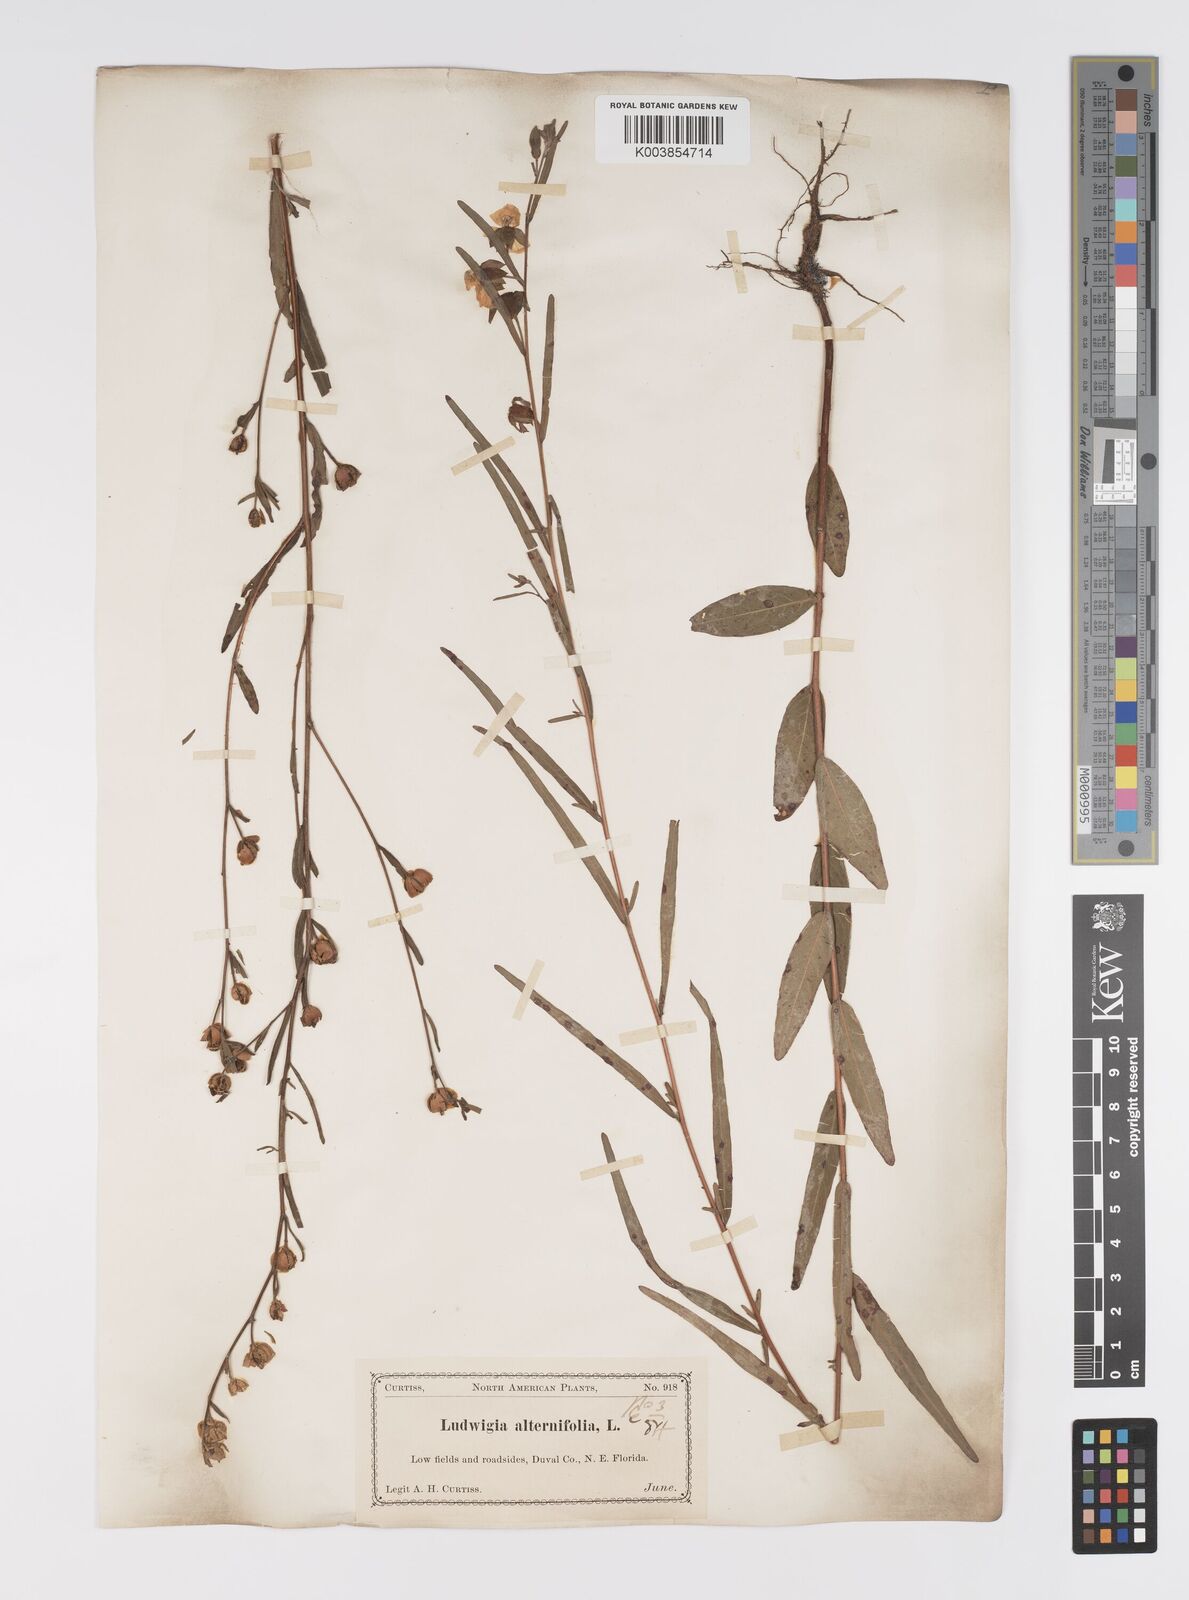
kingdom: Plantae
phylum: Tracheophyta
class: Magnoliopsida
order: Myrtales
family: Onagraceae
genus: Ludwigia
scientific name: Ludwigia alternifolia
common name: Rattlebox
